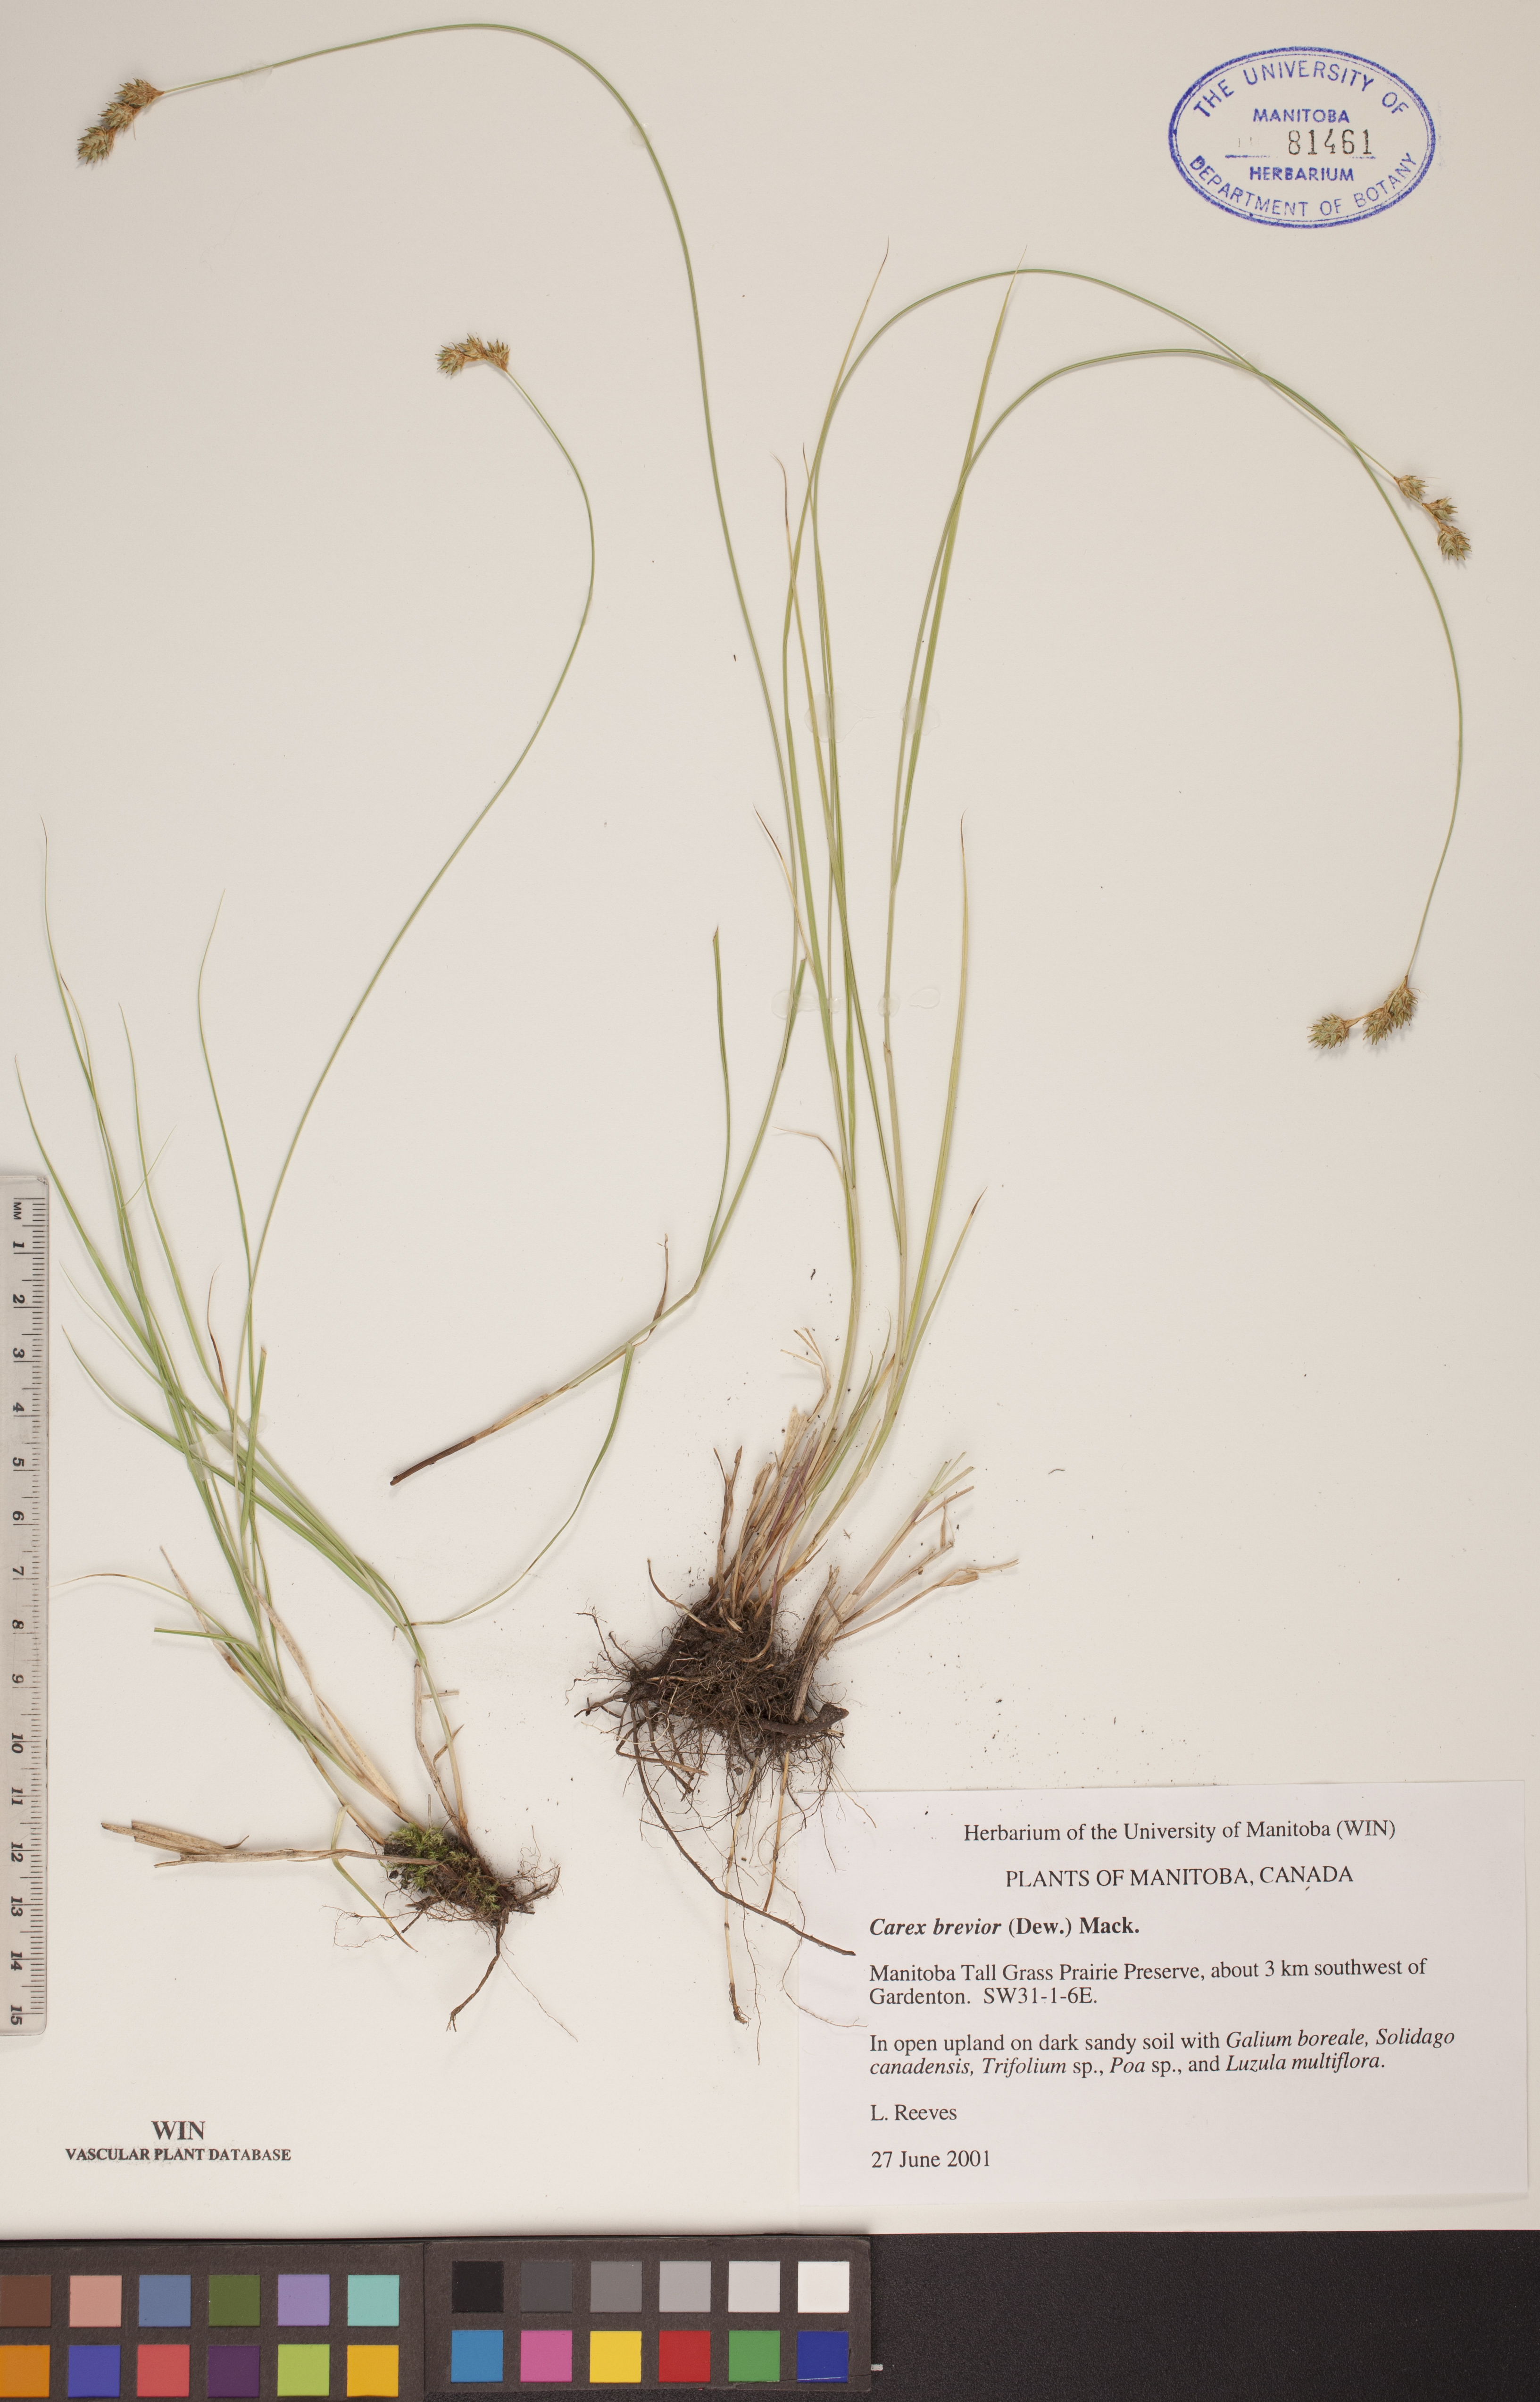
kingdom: Plantae
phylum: Tracheophyta
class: Liliopsida
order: Poales
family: Cyperaceae
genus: Carex
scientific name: Carex brevior
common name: Brevior sedge
